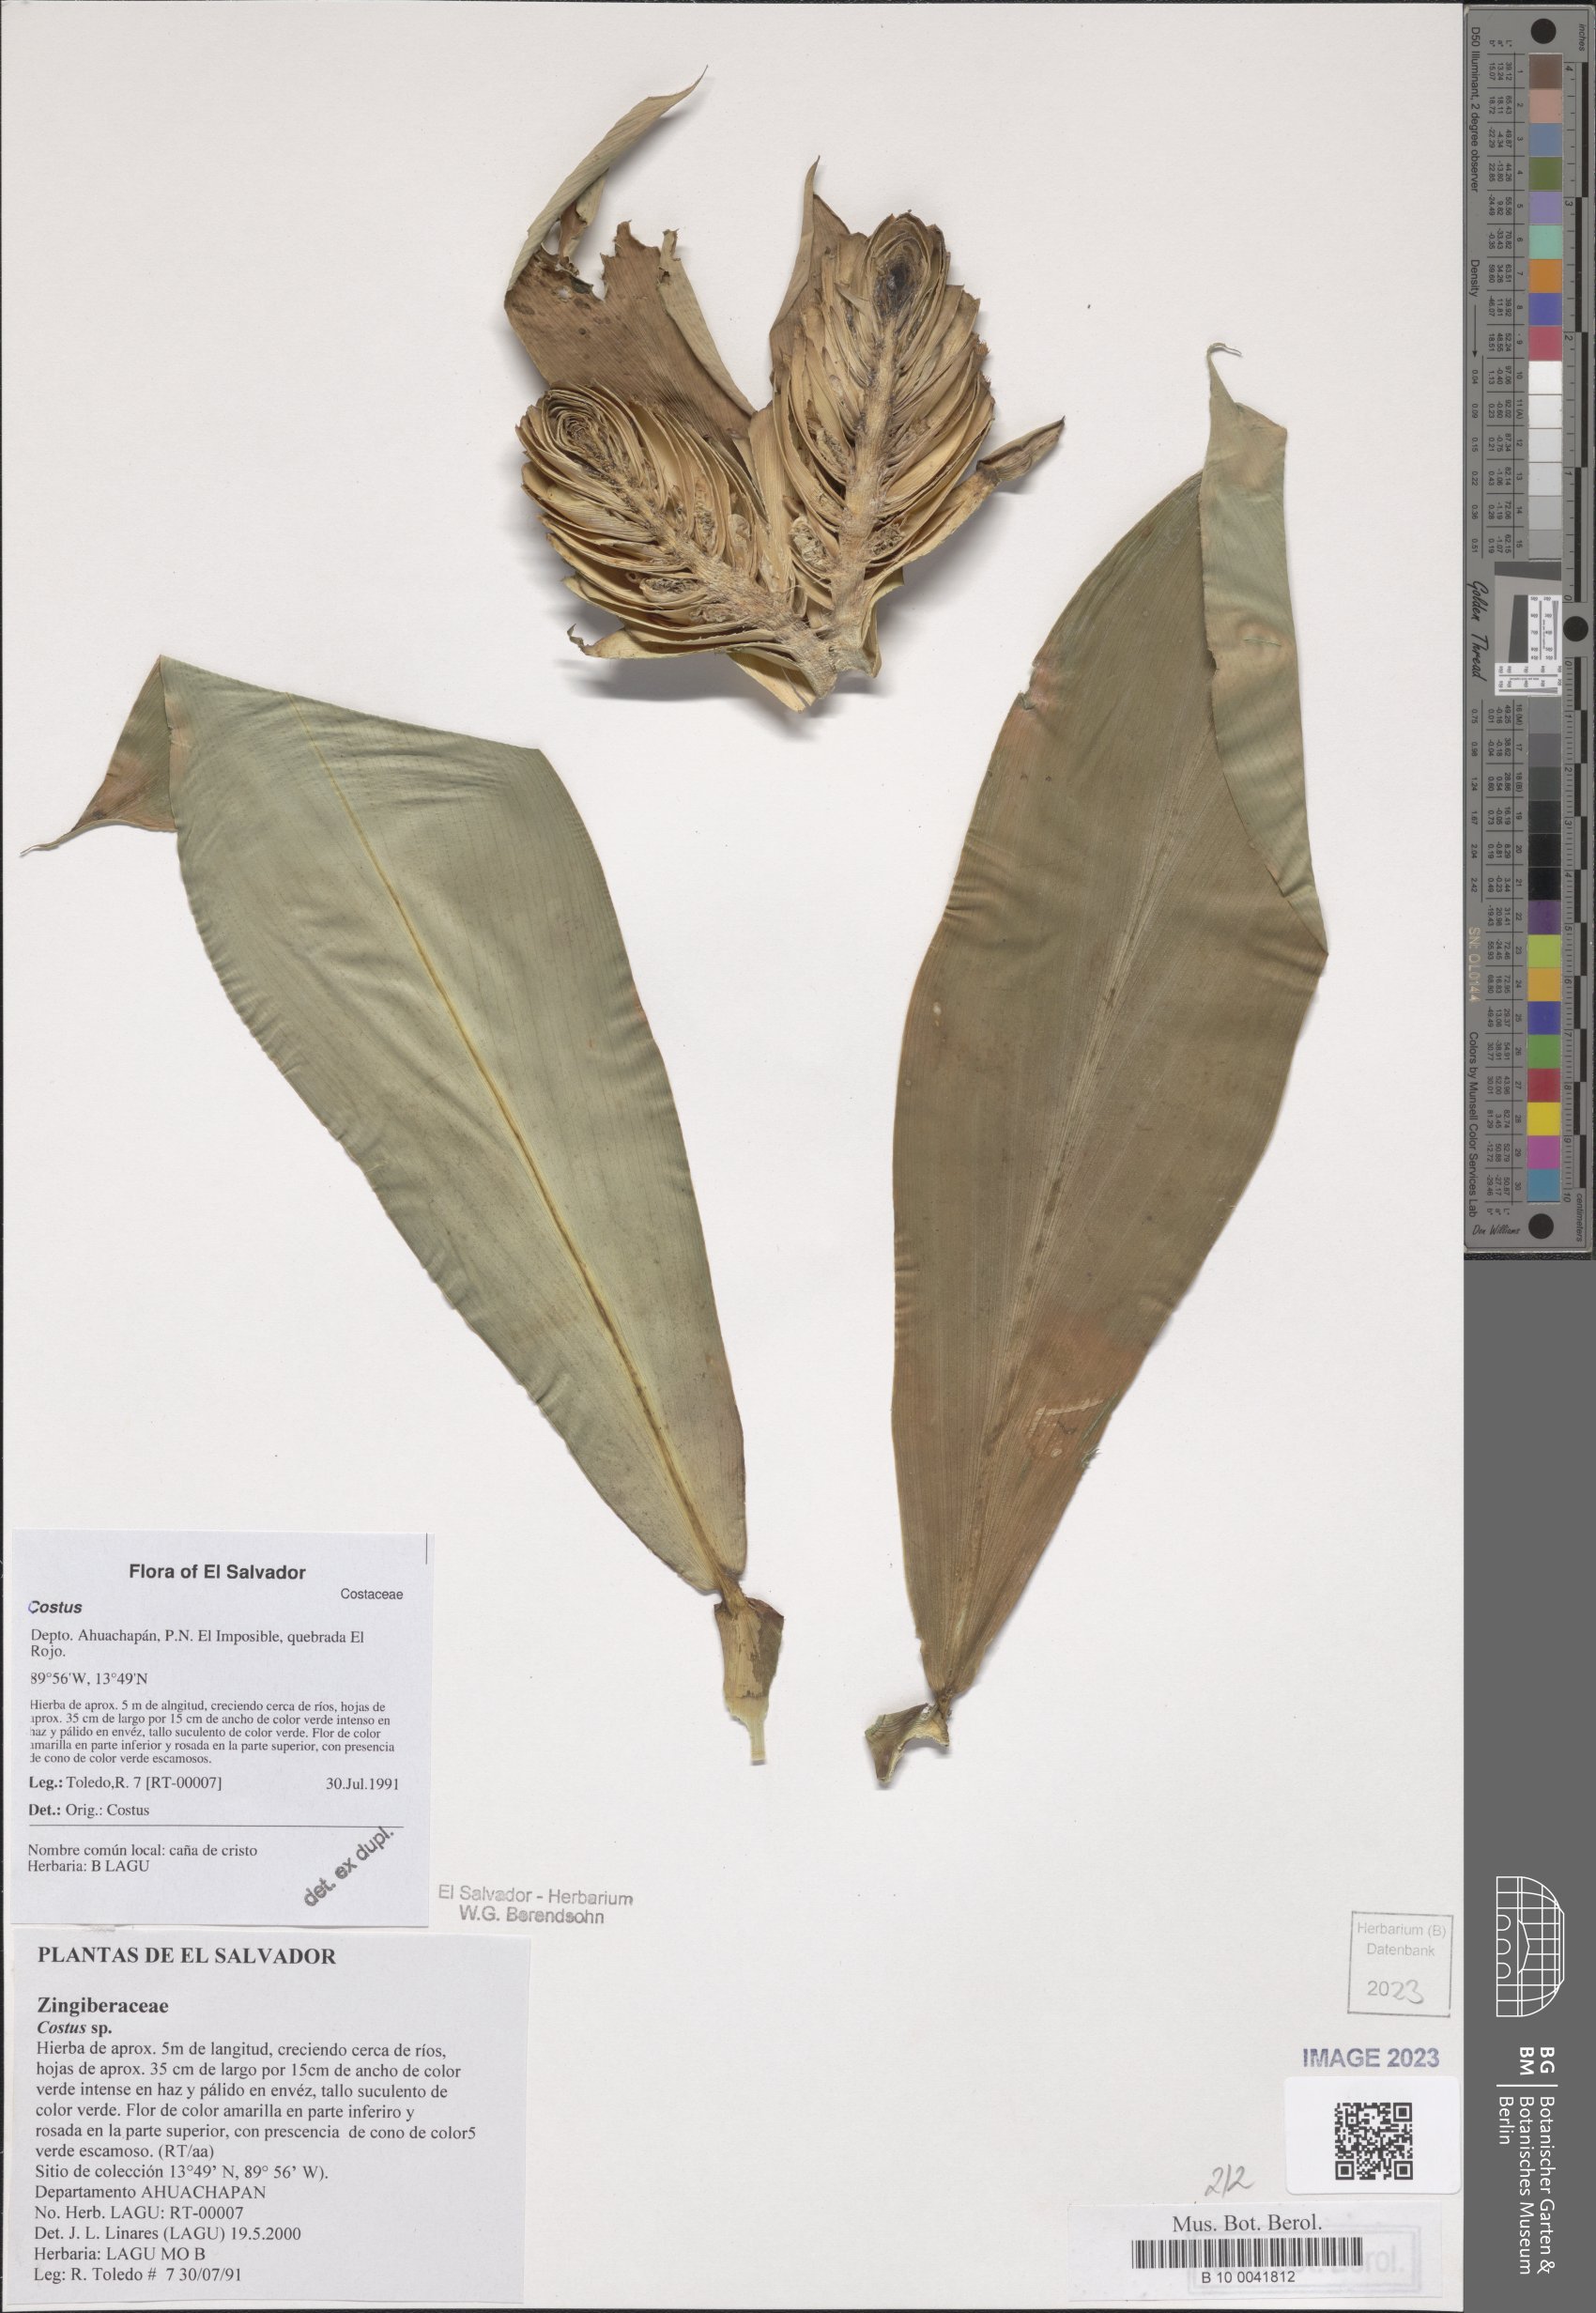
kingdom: Plantae
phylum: Tracheophyta
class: Liliopsida
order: Zingiberales
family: Costaceae
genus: Costus
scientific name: Costus
